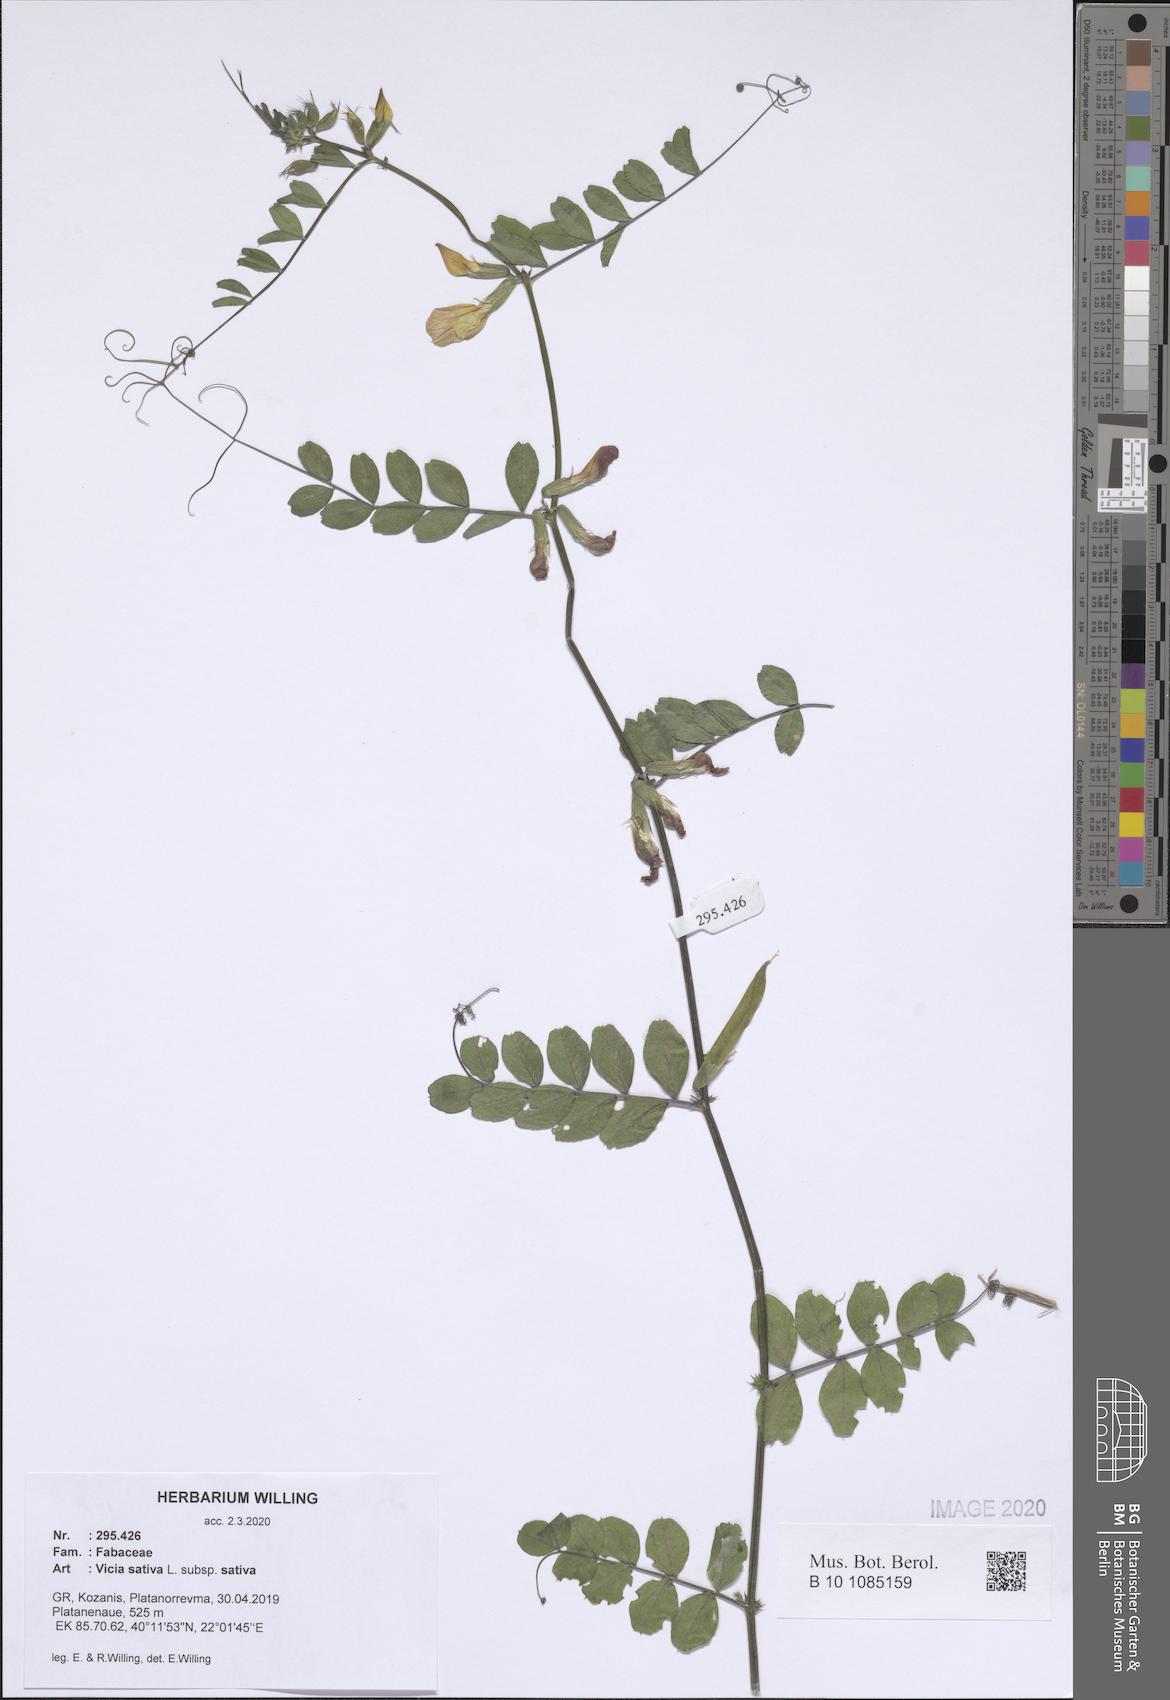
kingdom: Plantae
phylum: Tracheophyta
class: Magnoliopsida
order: Fabales
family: Fabaceae
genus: Vicia
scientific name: Vicia sativa
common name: Garden vetch
